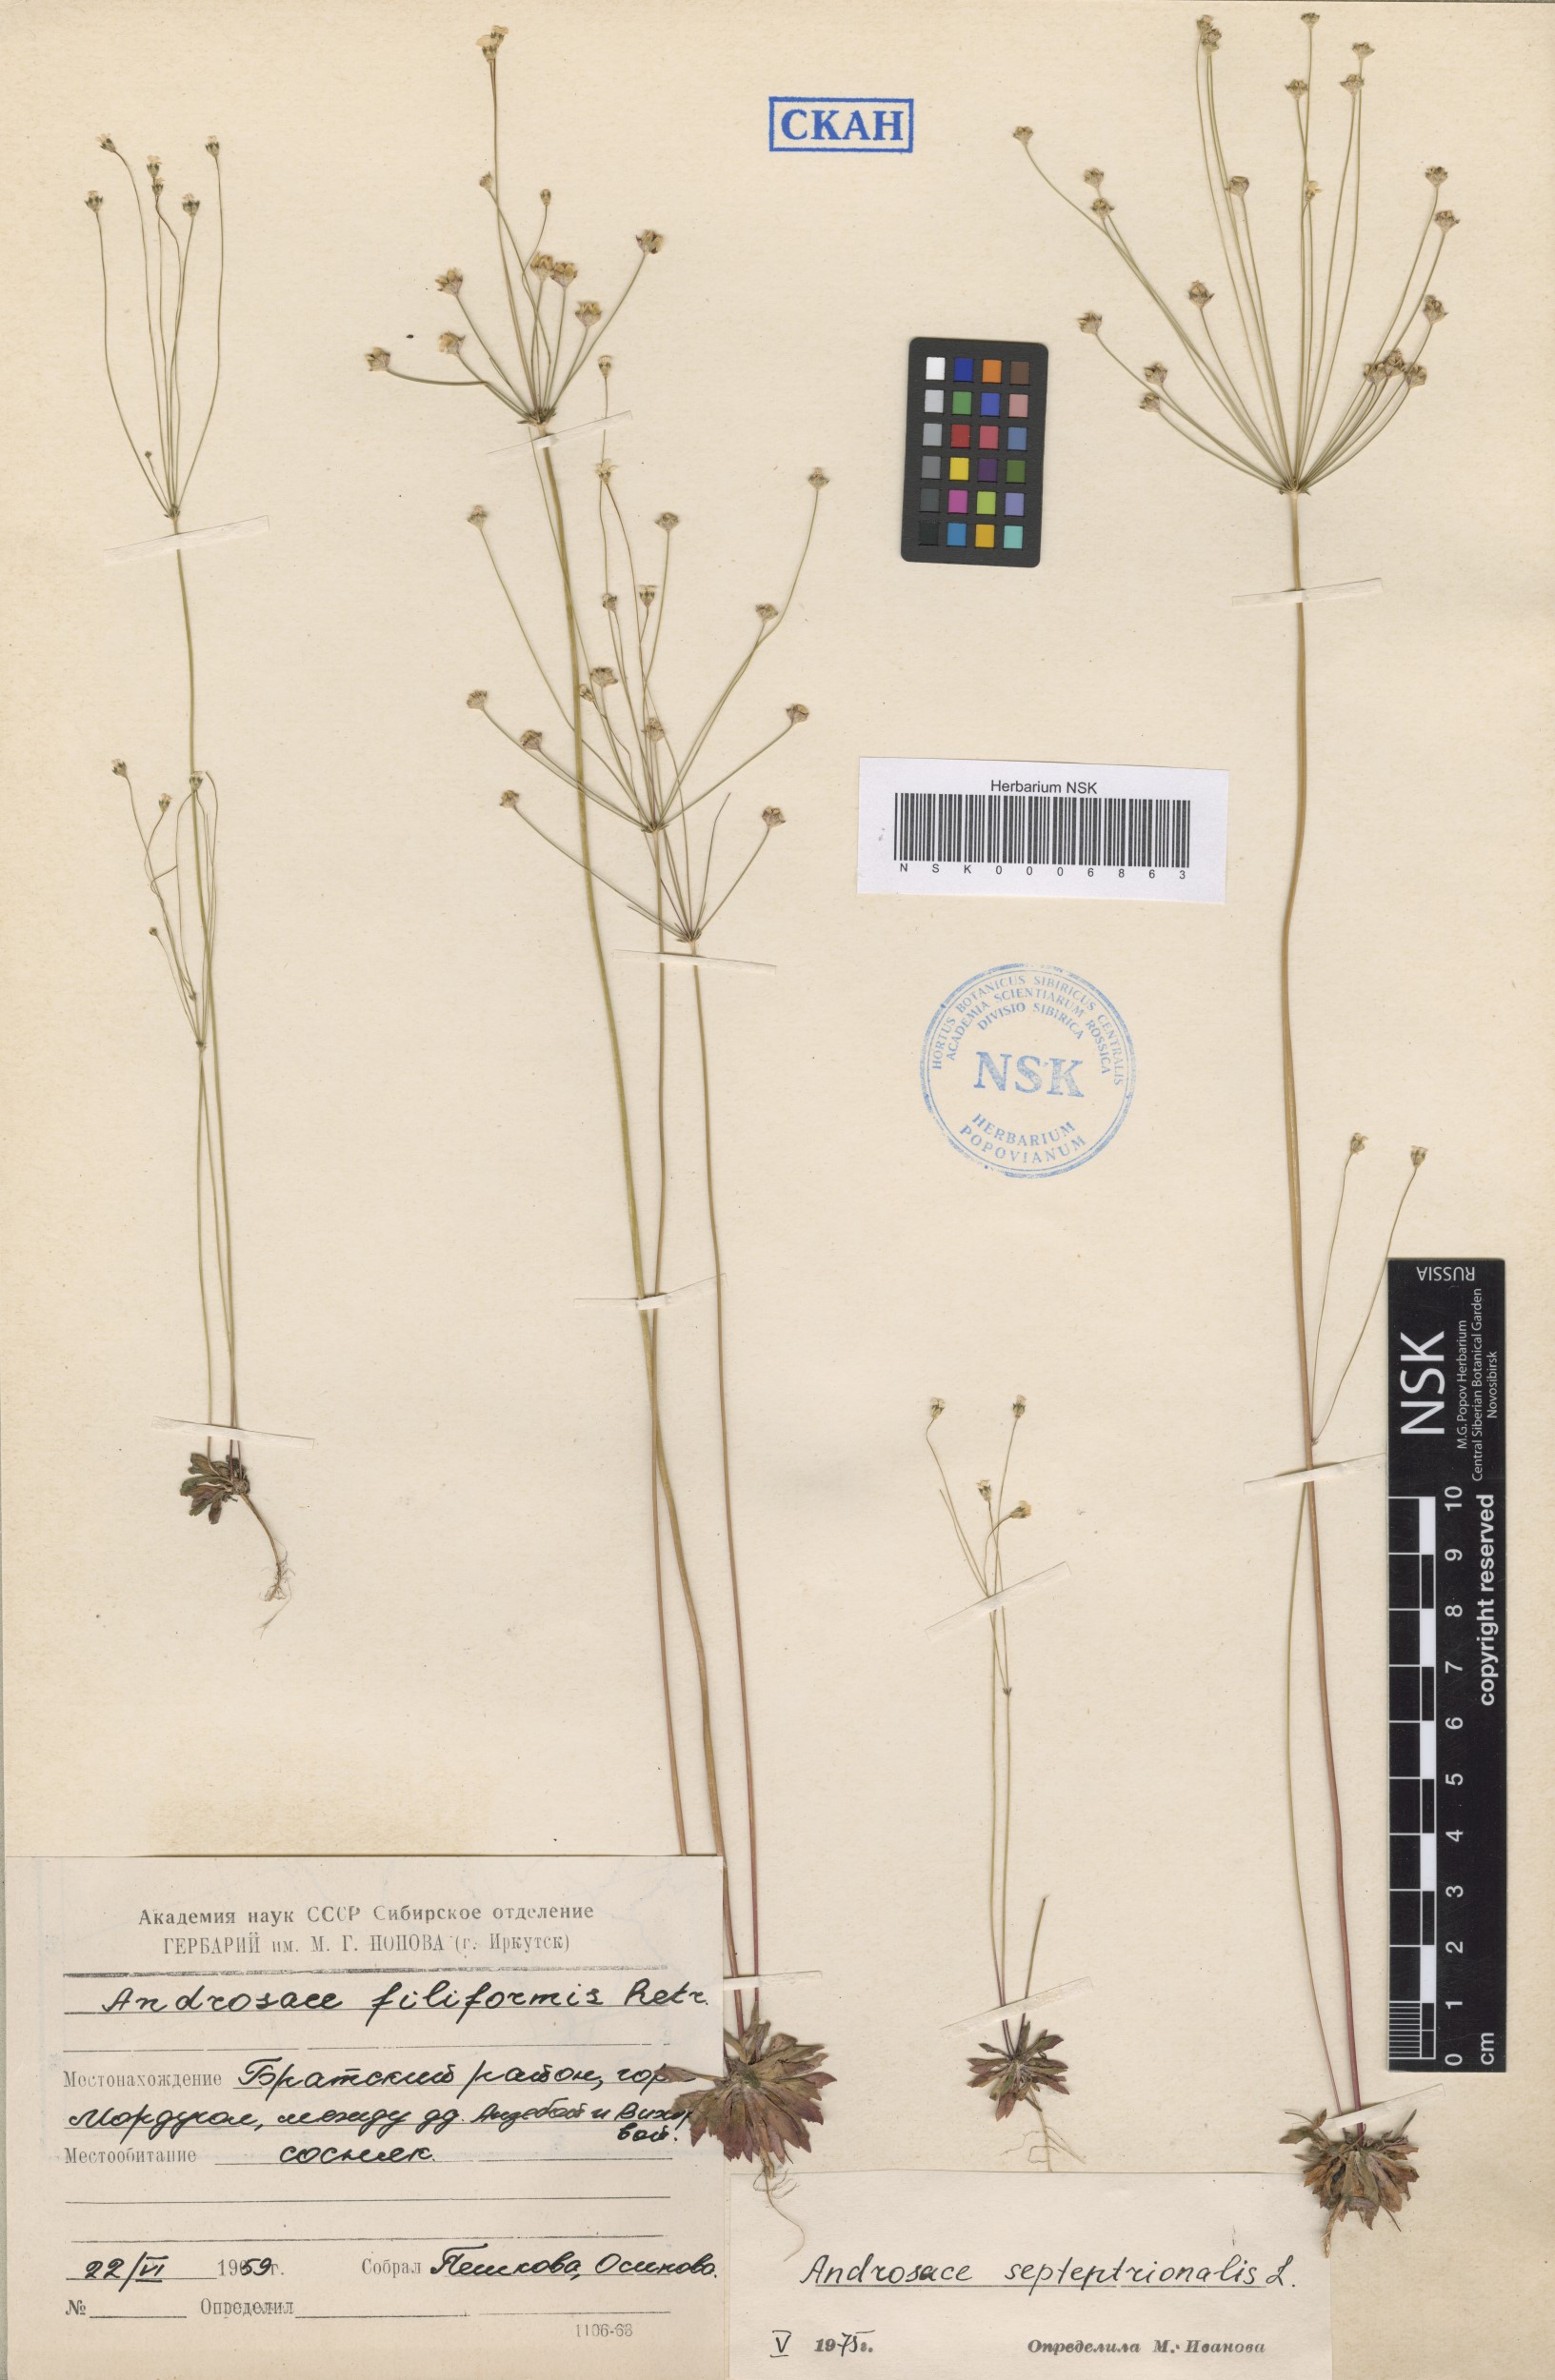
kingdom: Plantae
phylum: Tracheophyta
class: Magnoliopsida
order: Ericales
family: Primulaceae
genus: Androsace
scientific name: Androsace septentrionalis
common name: Hairy northern fairy-candelabra
